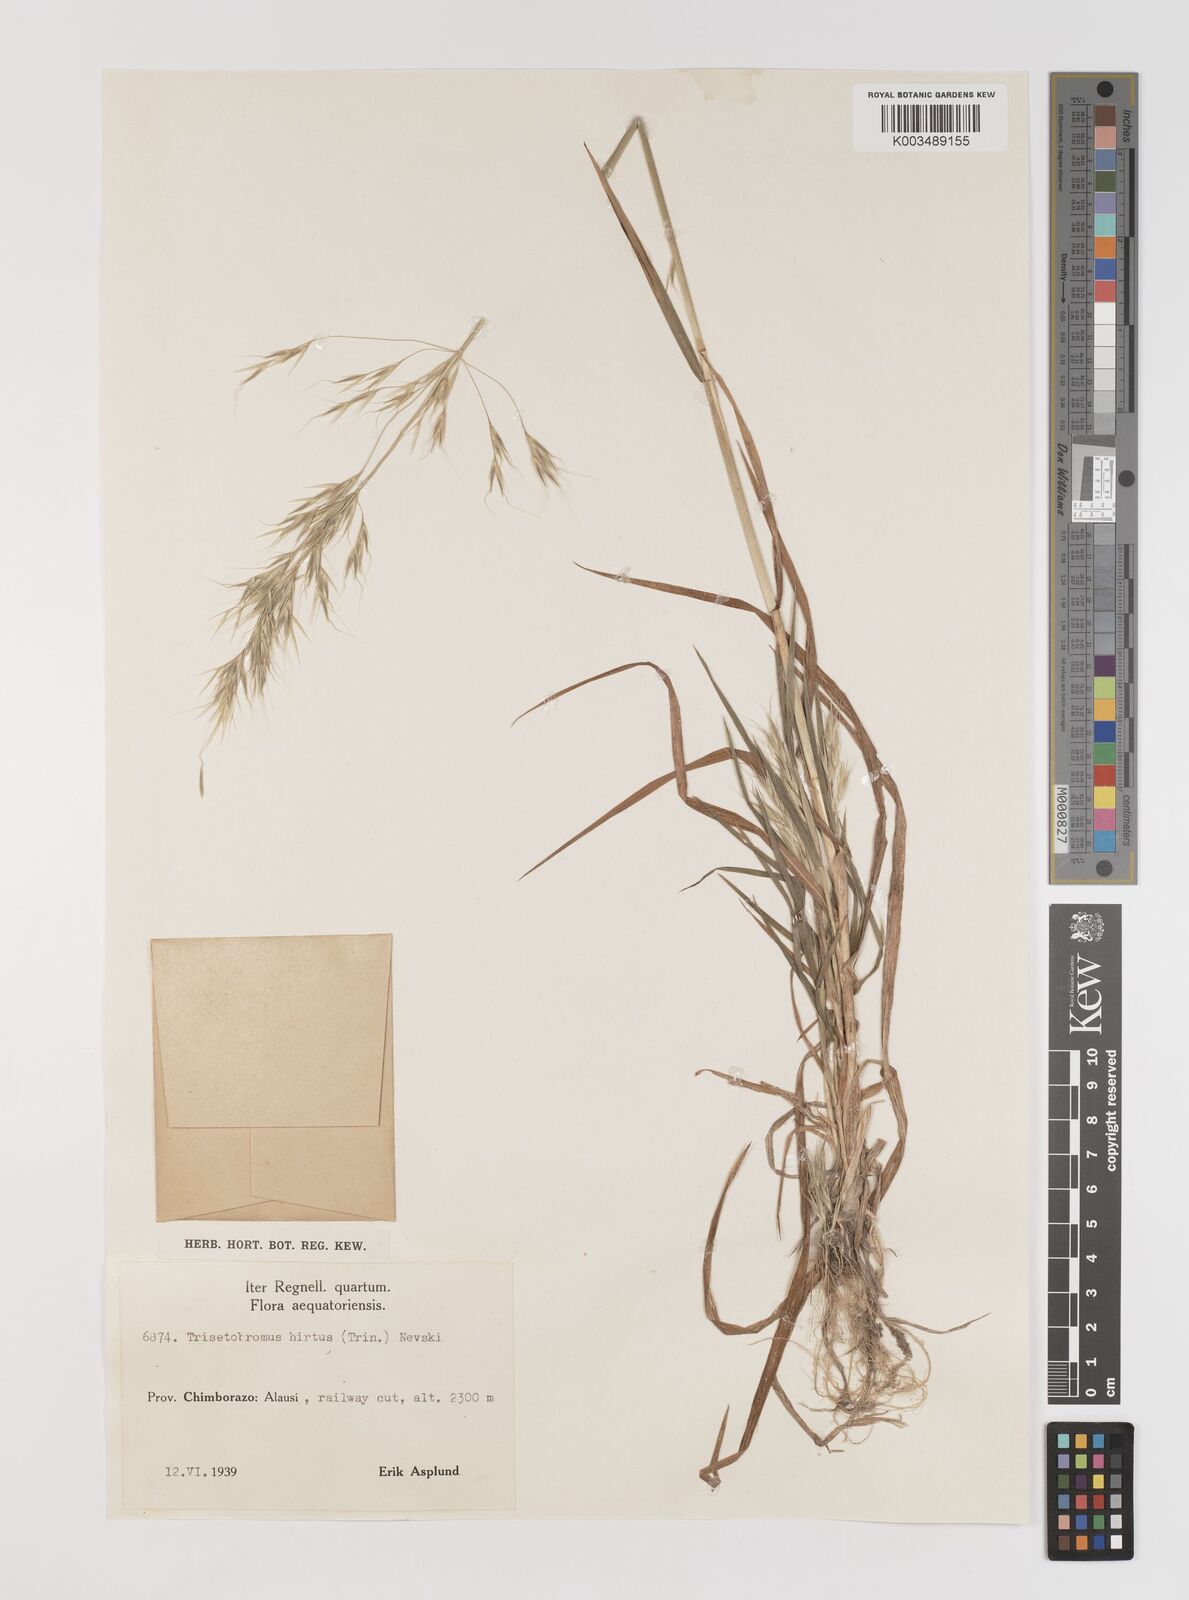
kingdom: Plantae
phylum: Tracheophyta
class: Liliopsida
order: Poales
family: Poaceae
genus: Bromus
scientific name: Bromus berteroanus
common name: Chilean chess
